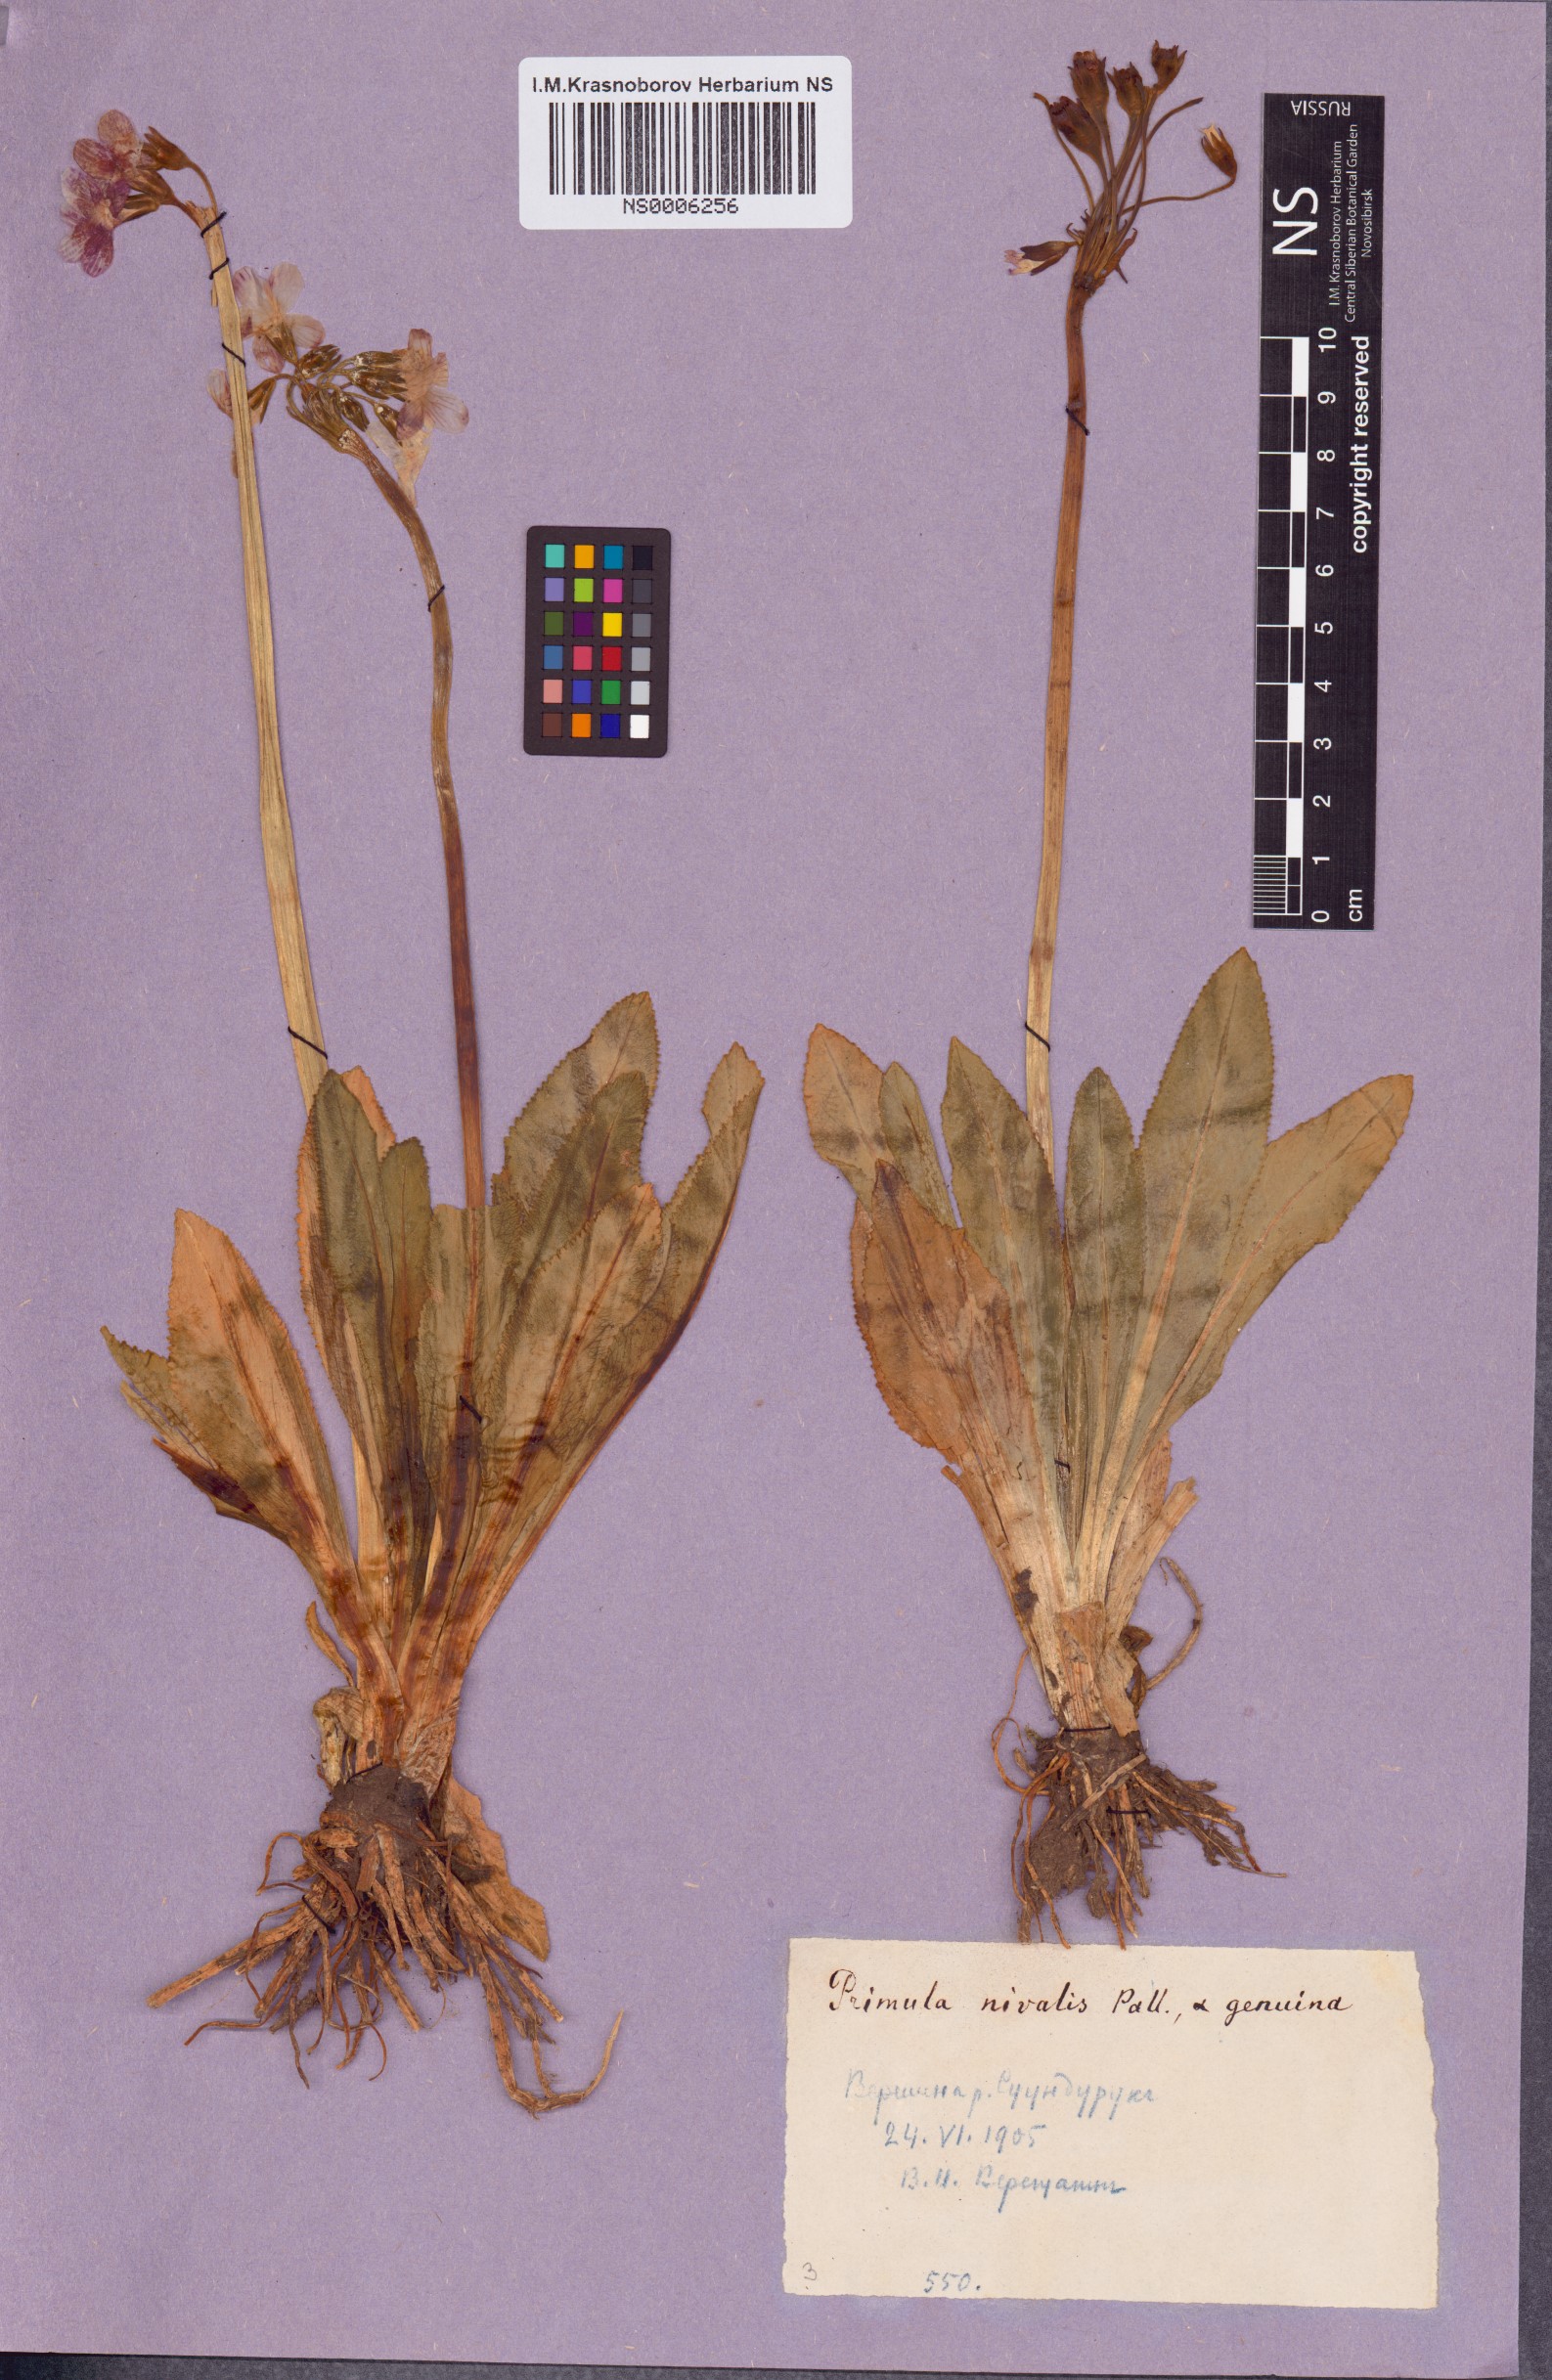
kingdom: Plantae
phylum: Tracheophyta
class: Magnoliopsida
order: Ericales
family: Primulaceae
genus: Primula
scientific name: Primula nivalis
